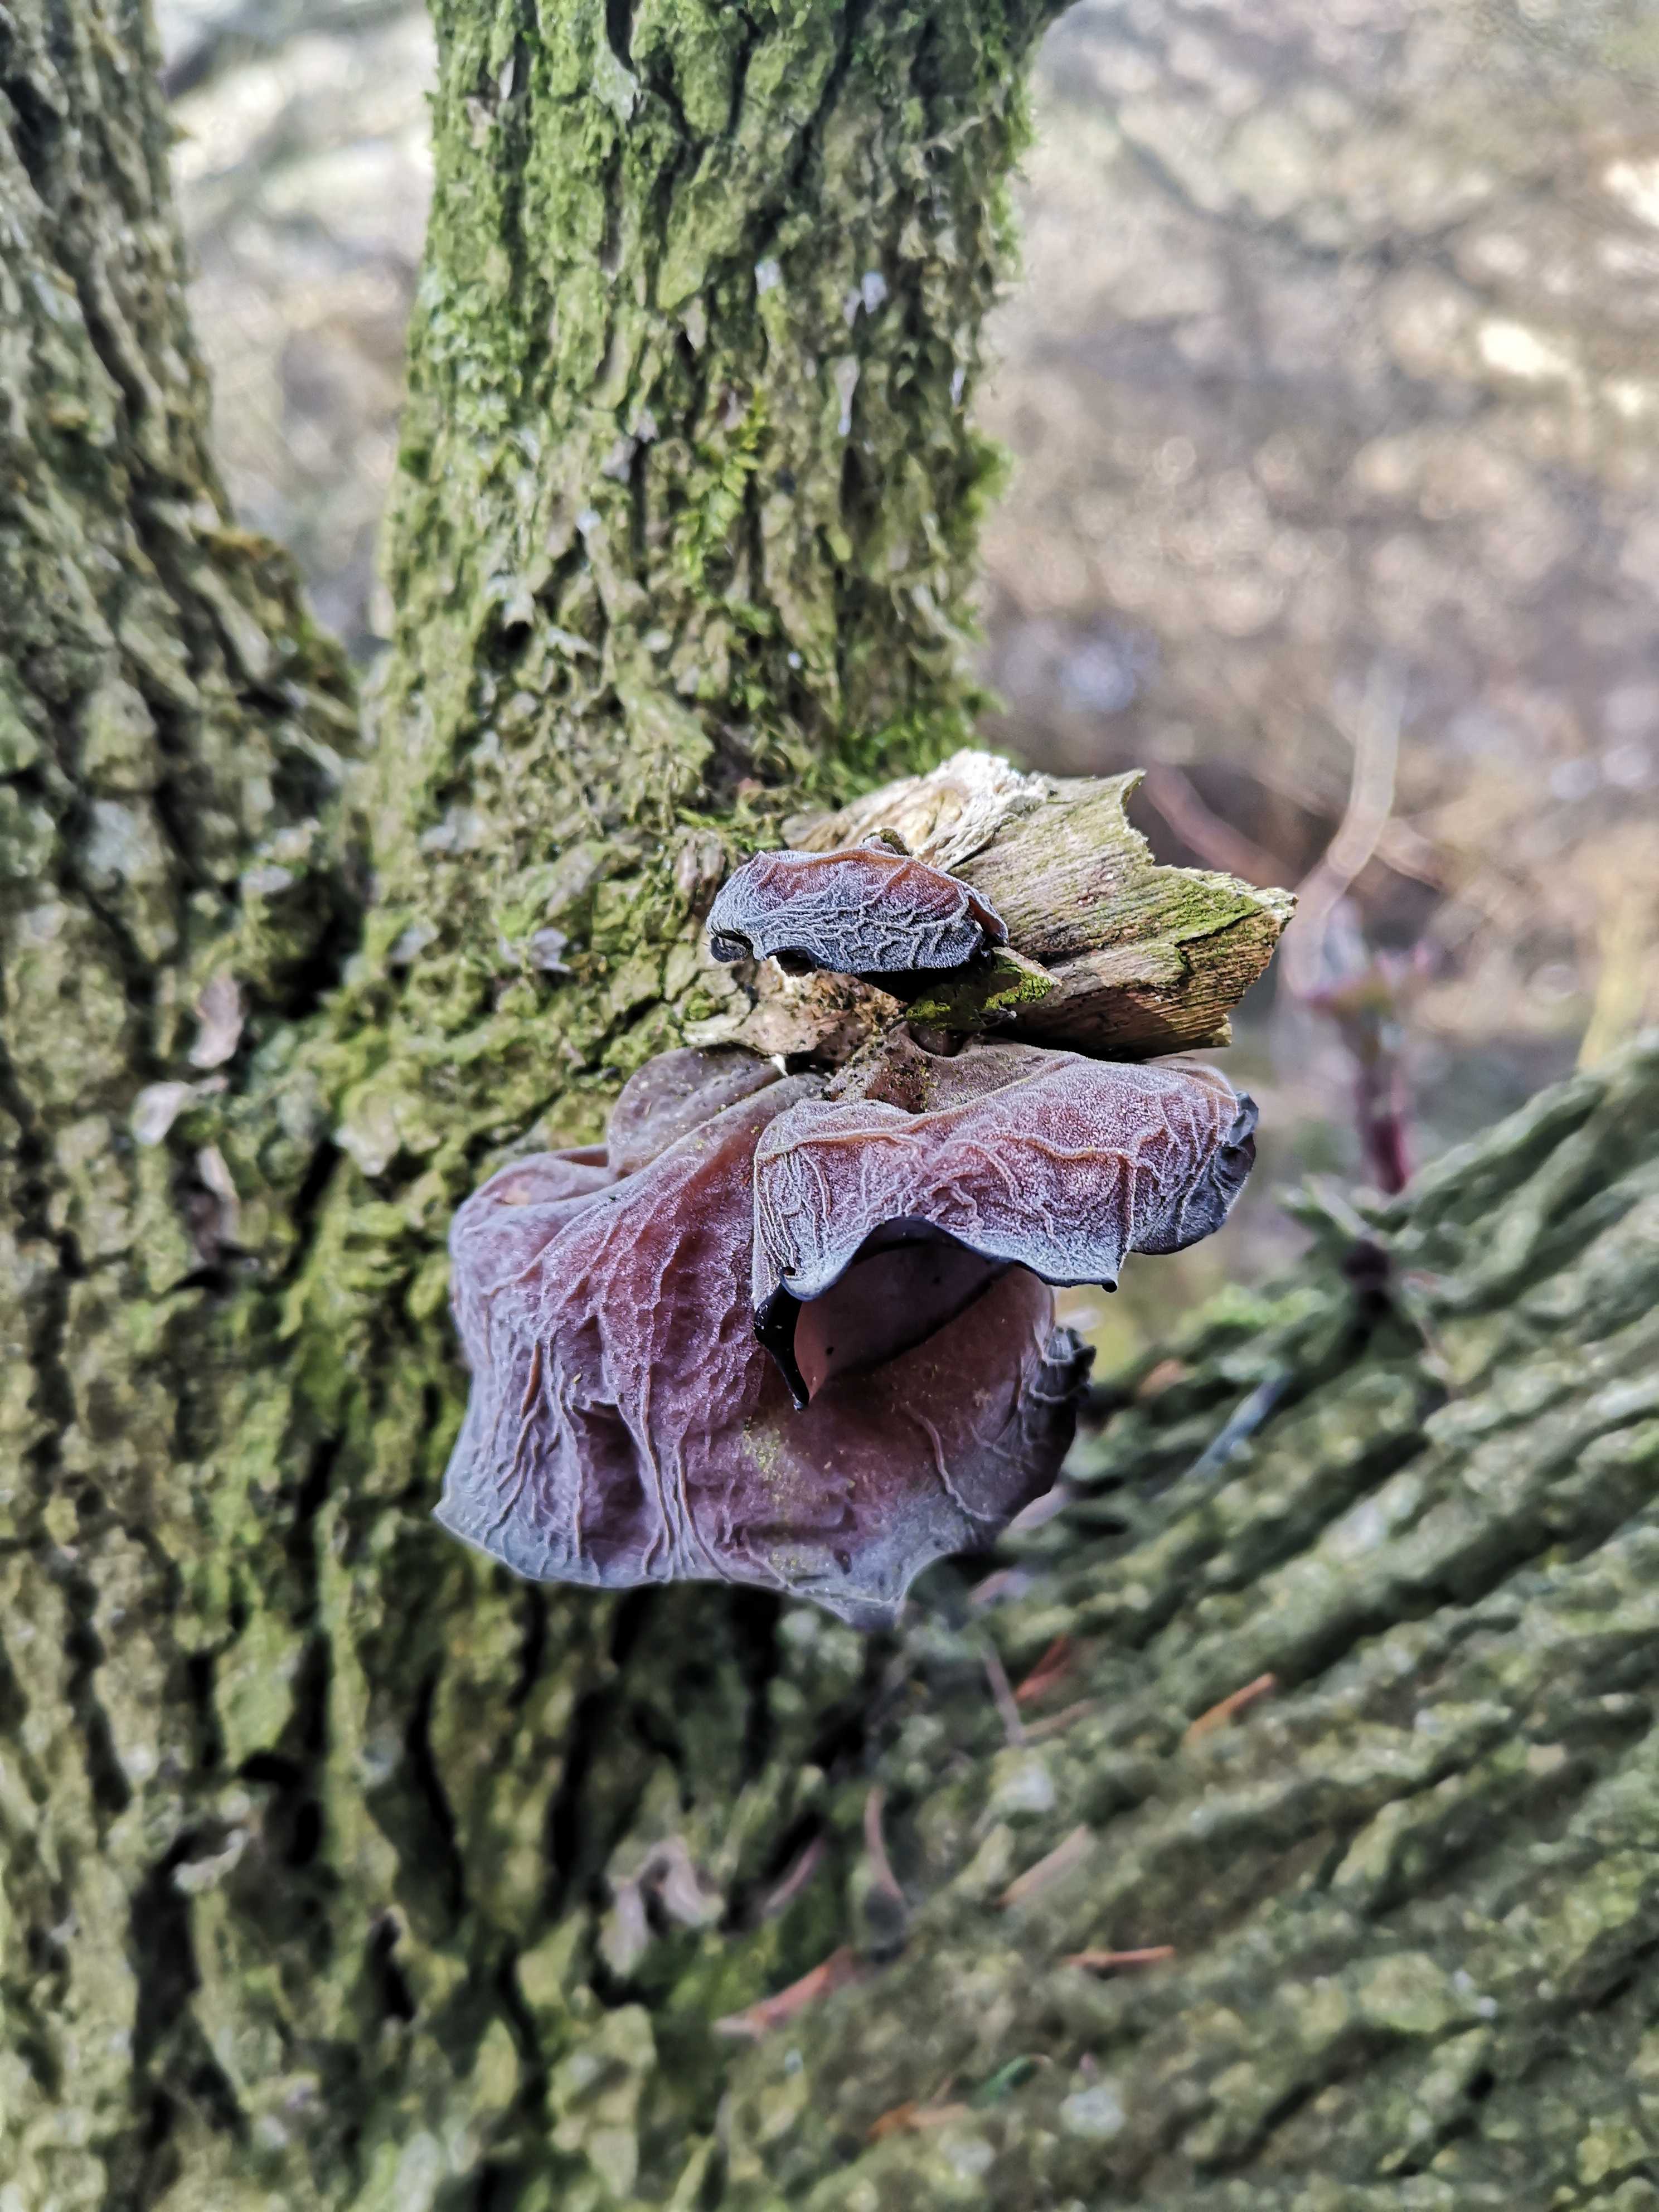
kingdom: Fungi
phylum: Basidiomycota
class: Agaricomycetes
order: Auriculariales
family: Auriculariaceae
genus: Auricularia
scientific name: Auricularia auricula-judae
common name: almindelig judasøre
